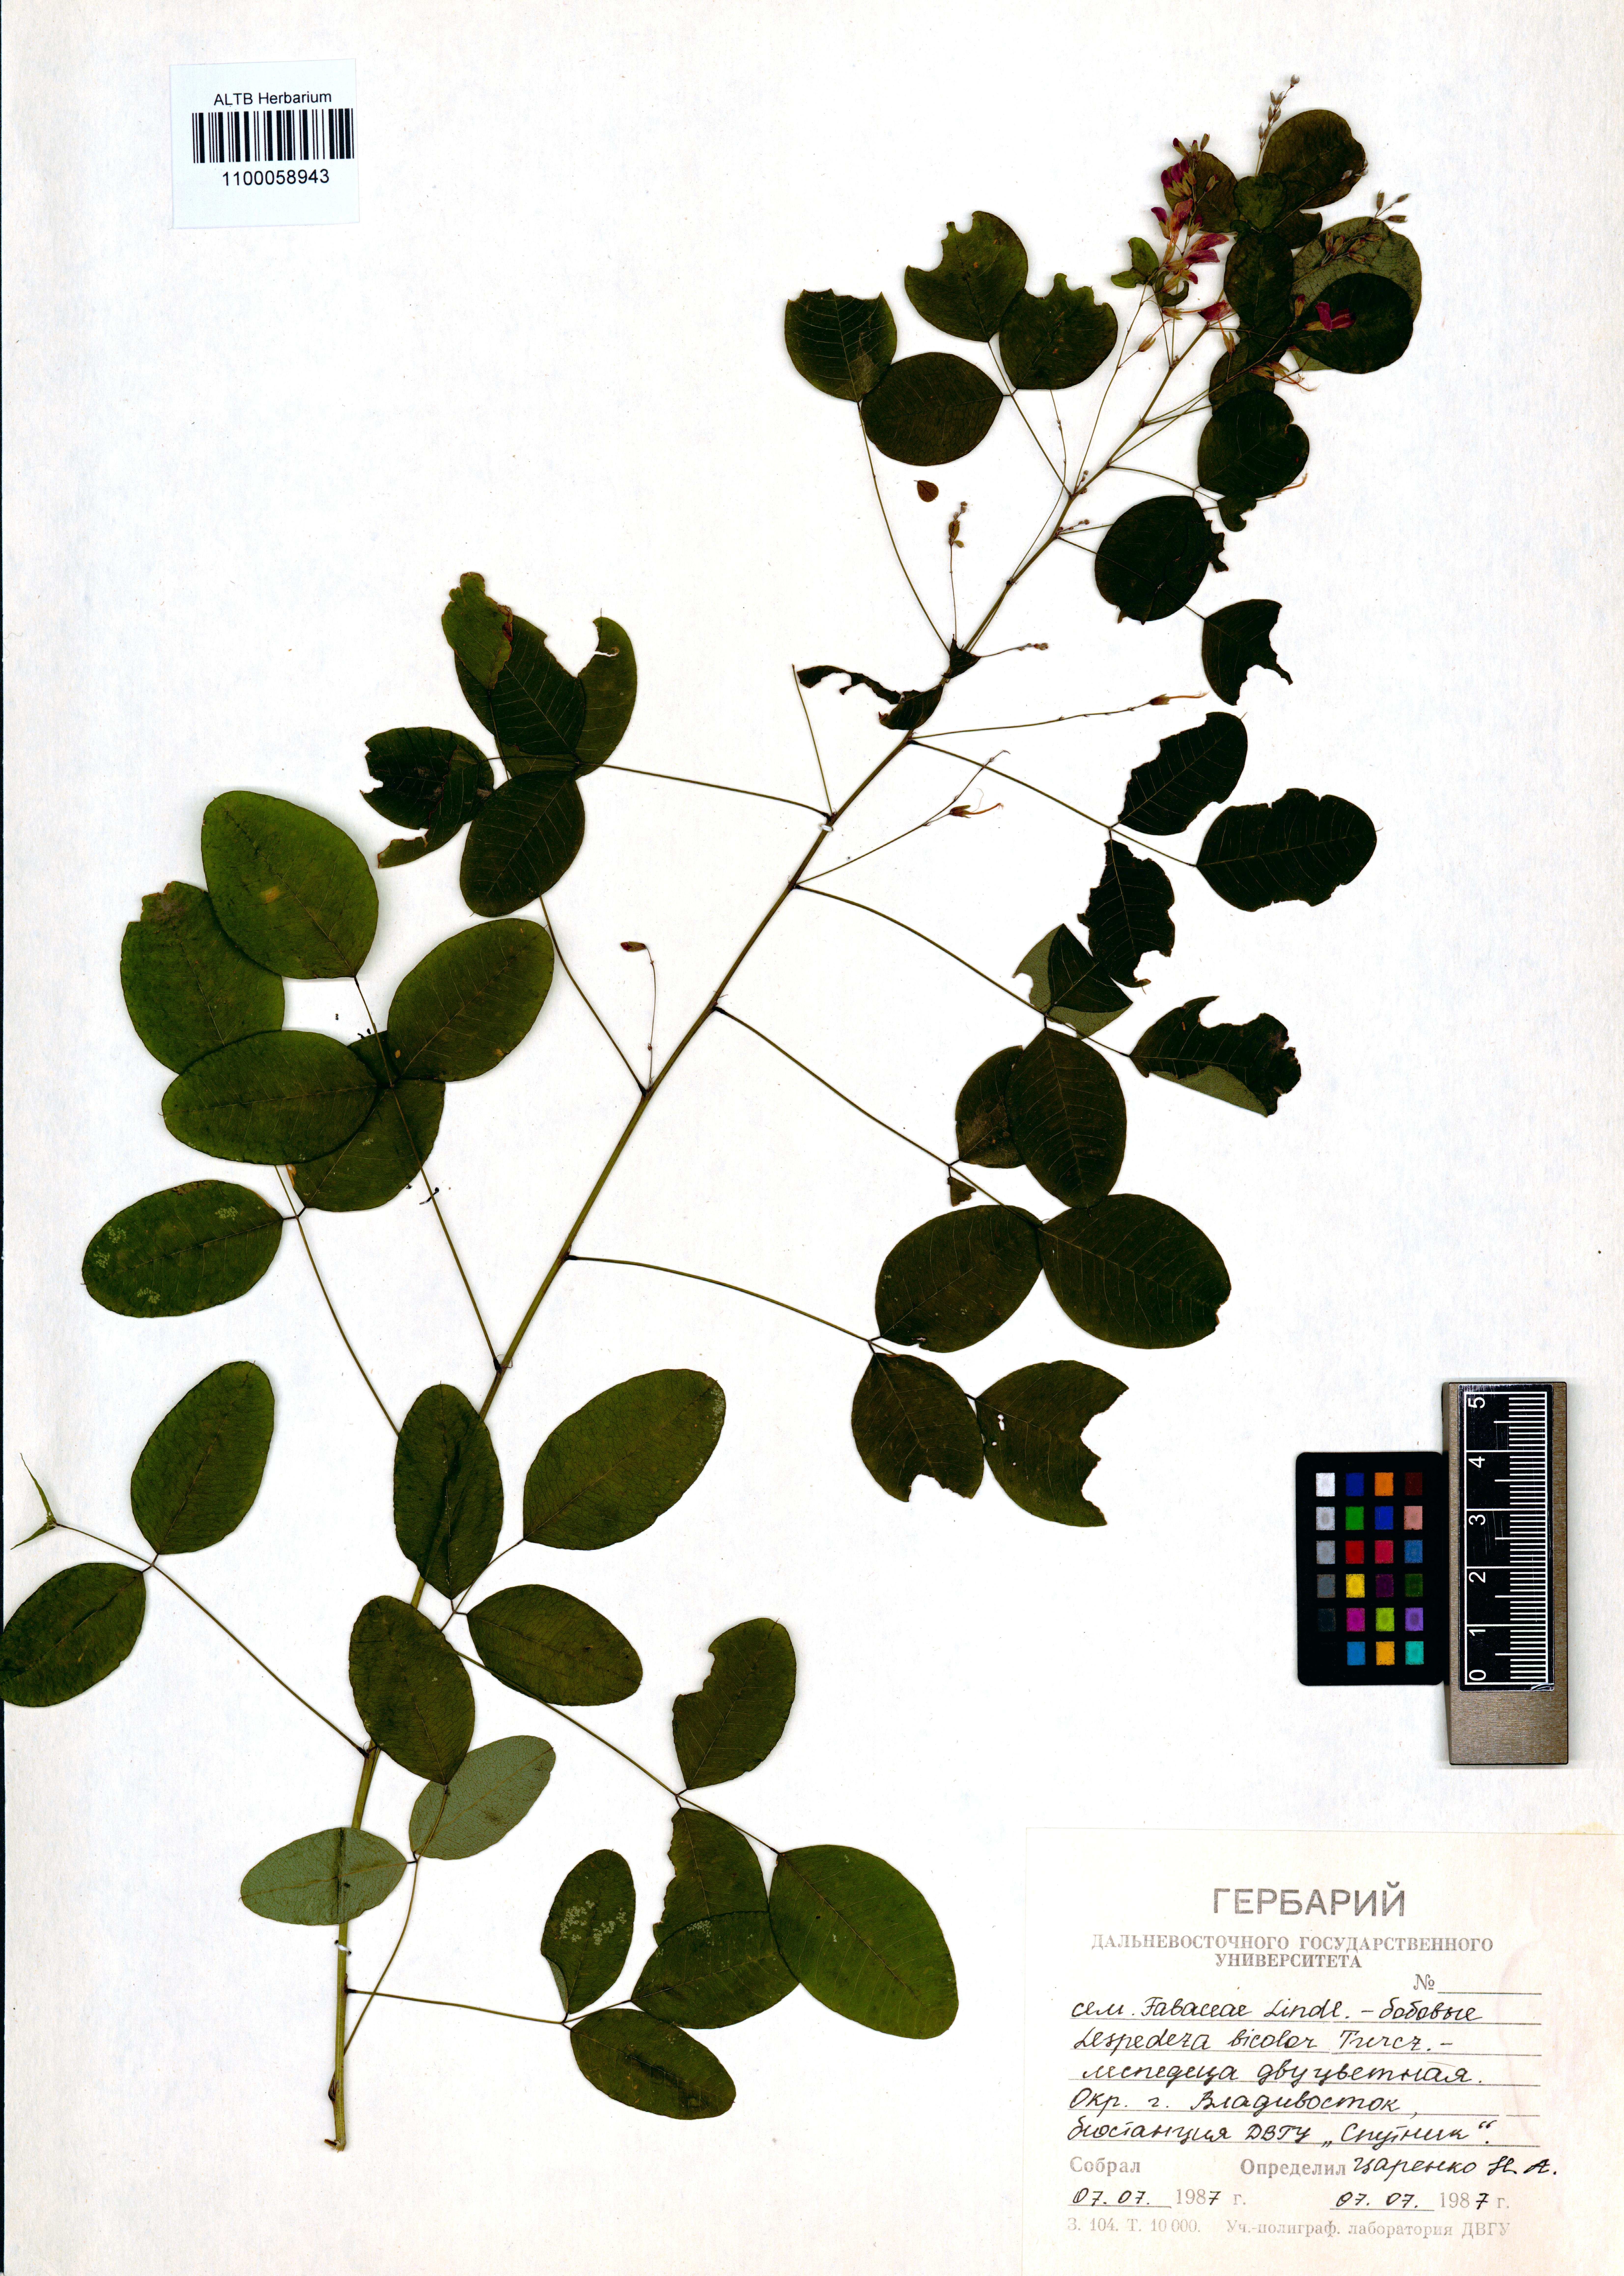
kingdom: Plantae
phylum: Tracheophyta
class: Magnoliopsida
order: Fabales
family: Fabaceae
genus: Lespedeza
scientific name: Lespedeza bicolor
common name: Shrub lespedeza
